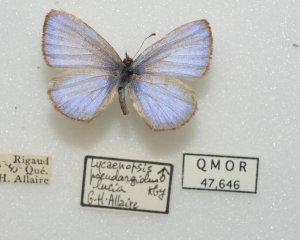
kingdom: Animalia
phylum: Arthropoda
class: Insecta
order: Lepidoptera
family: Lycaenidae
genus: Celastrina
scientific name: Celastrina lucia
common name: Northern Spring Azure
